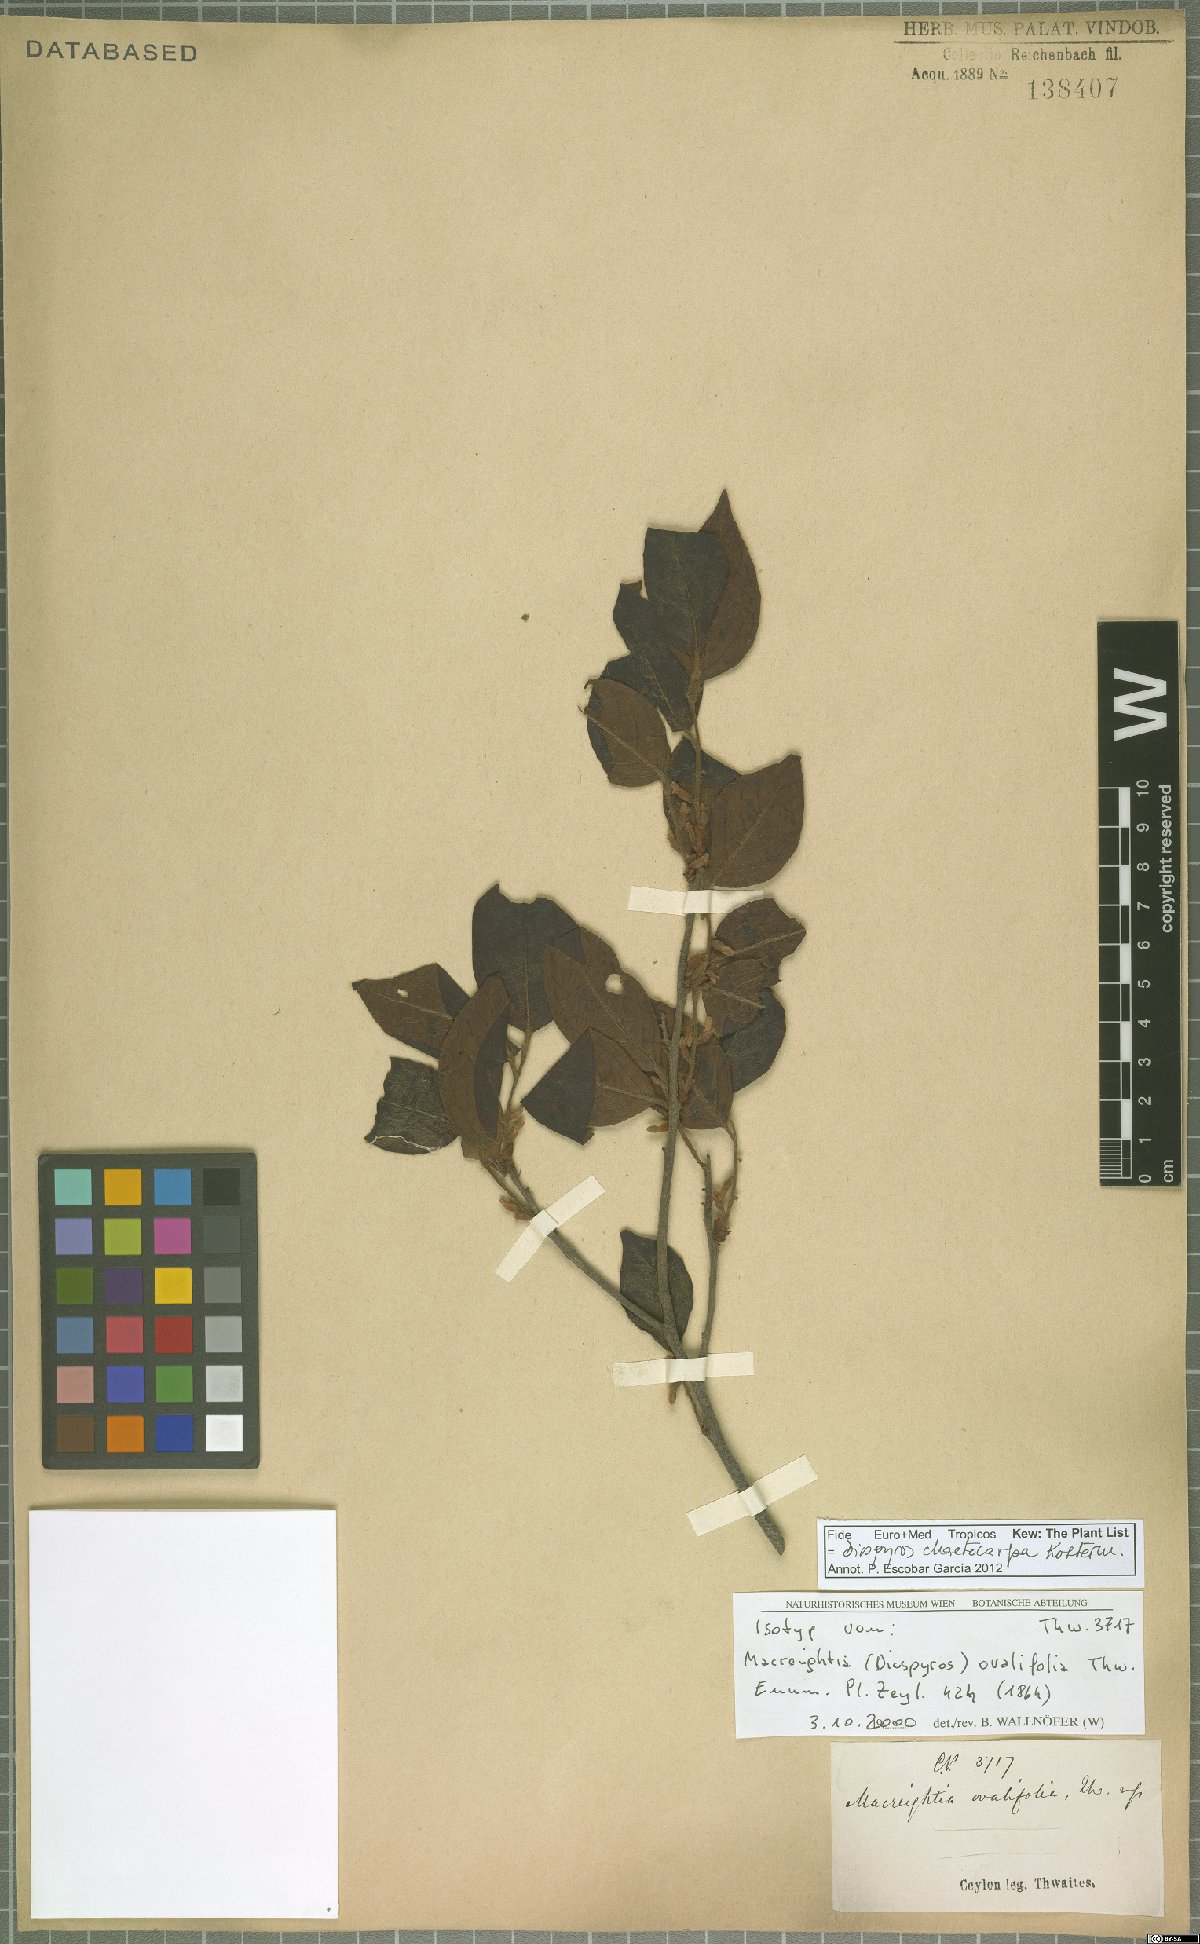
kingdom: Plantae
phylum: Tracheophyta
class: Magnoliopsida
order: Ericales
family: Ebenaceae
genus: Diospyros
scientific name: Diospyros chaetocarpa
